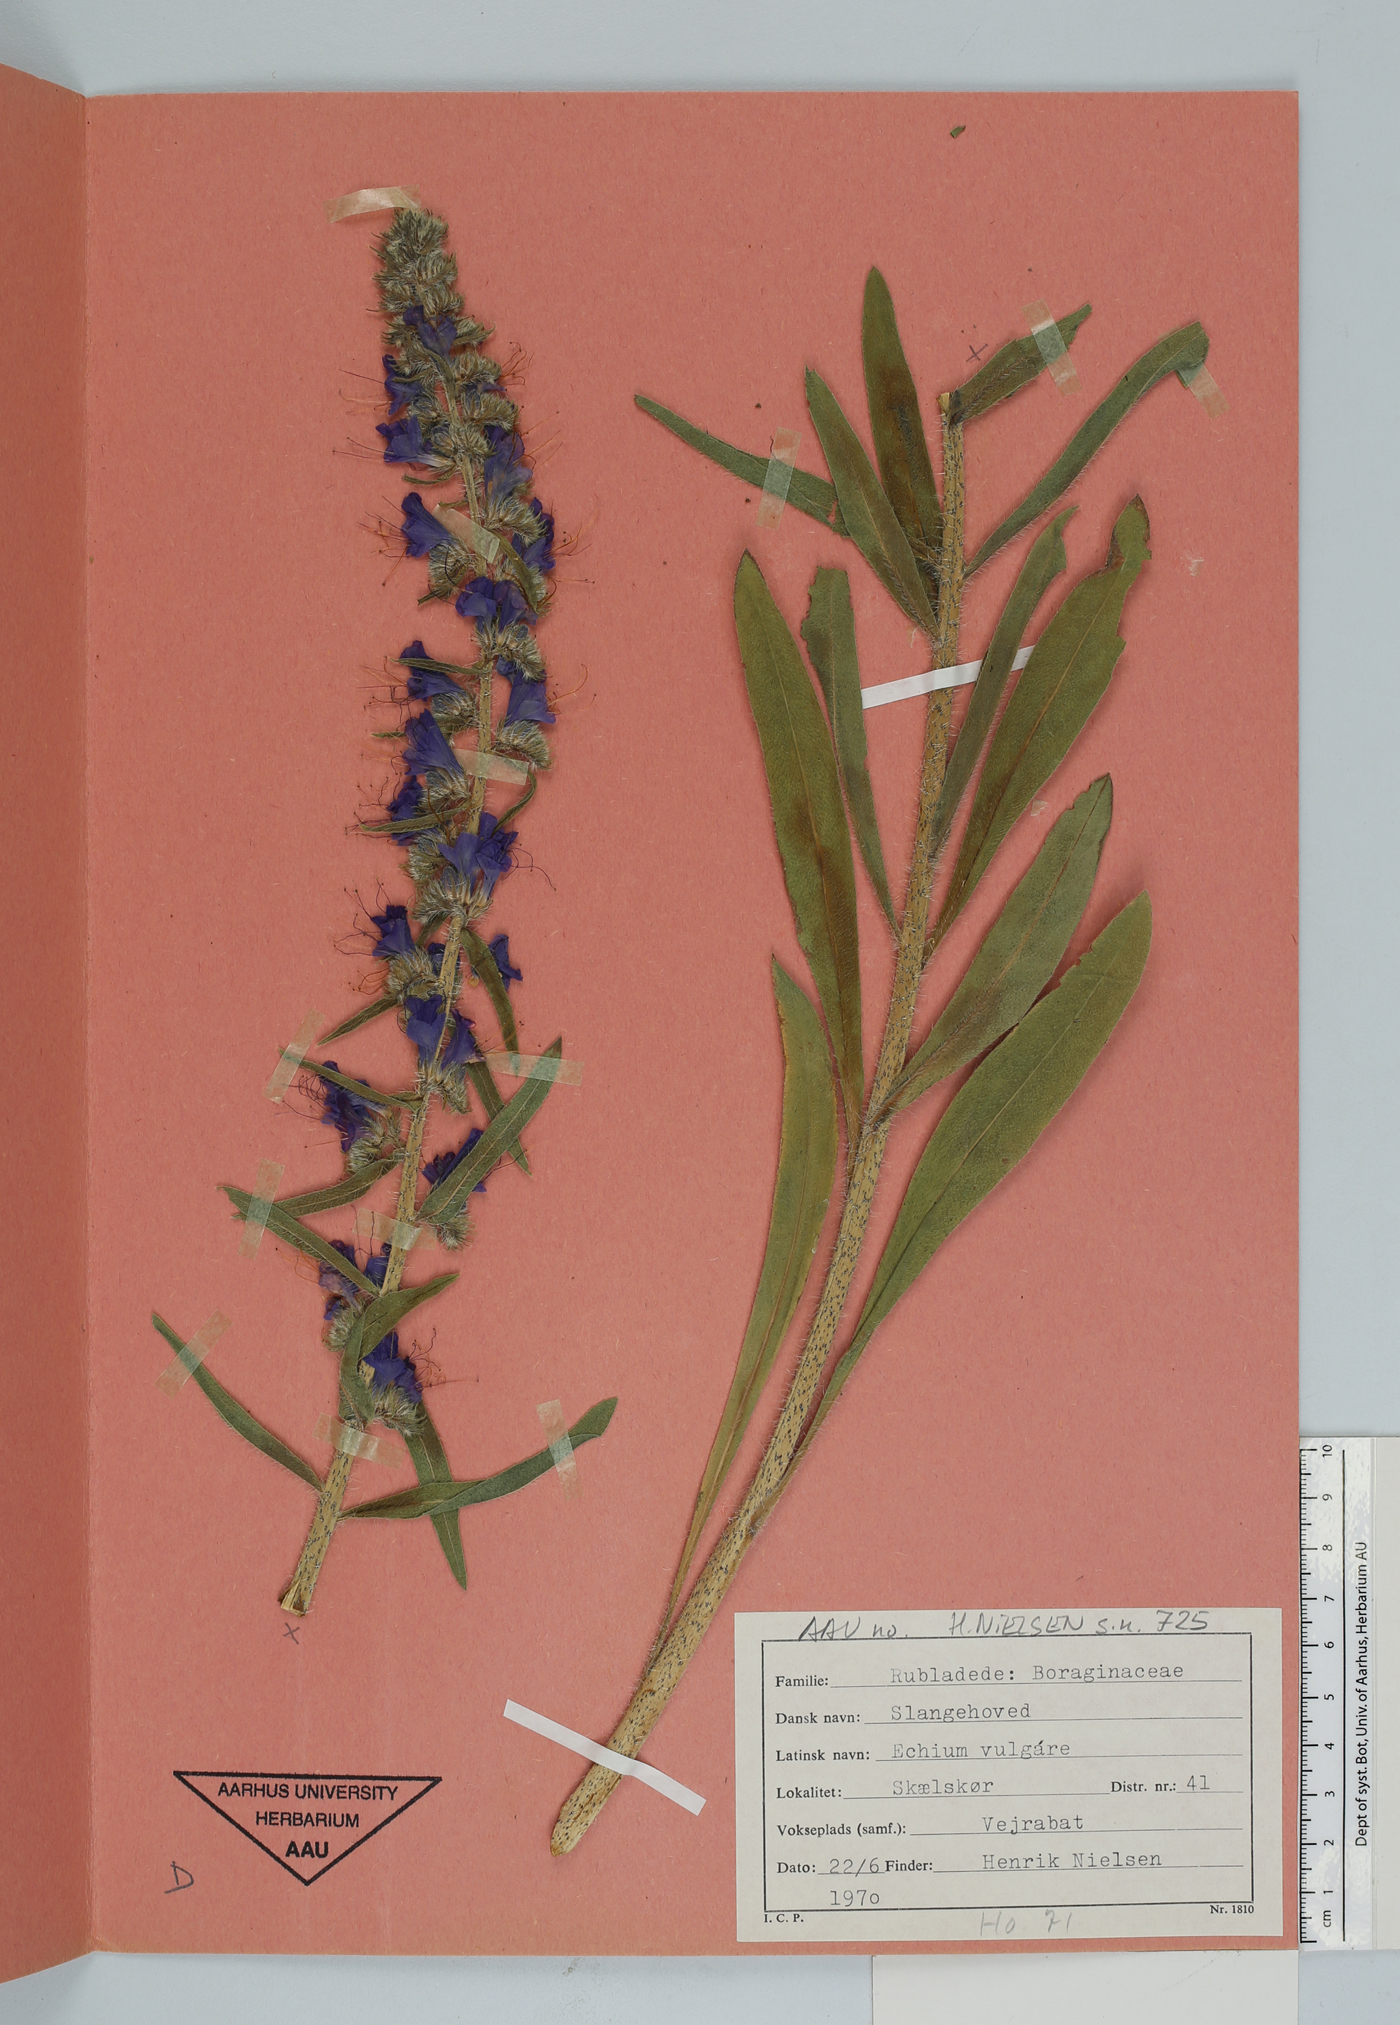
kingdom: Plantae
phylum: Tracheophyta
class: Magnoliopsida
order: Boraginales
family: Boraginaceae
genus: Echium
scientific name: Echium vulgare
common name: Common viper's bugloss
